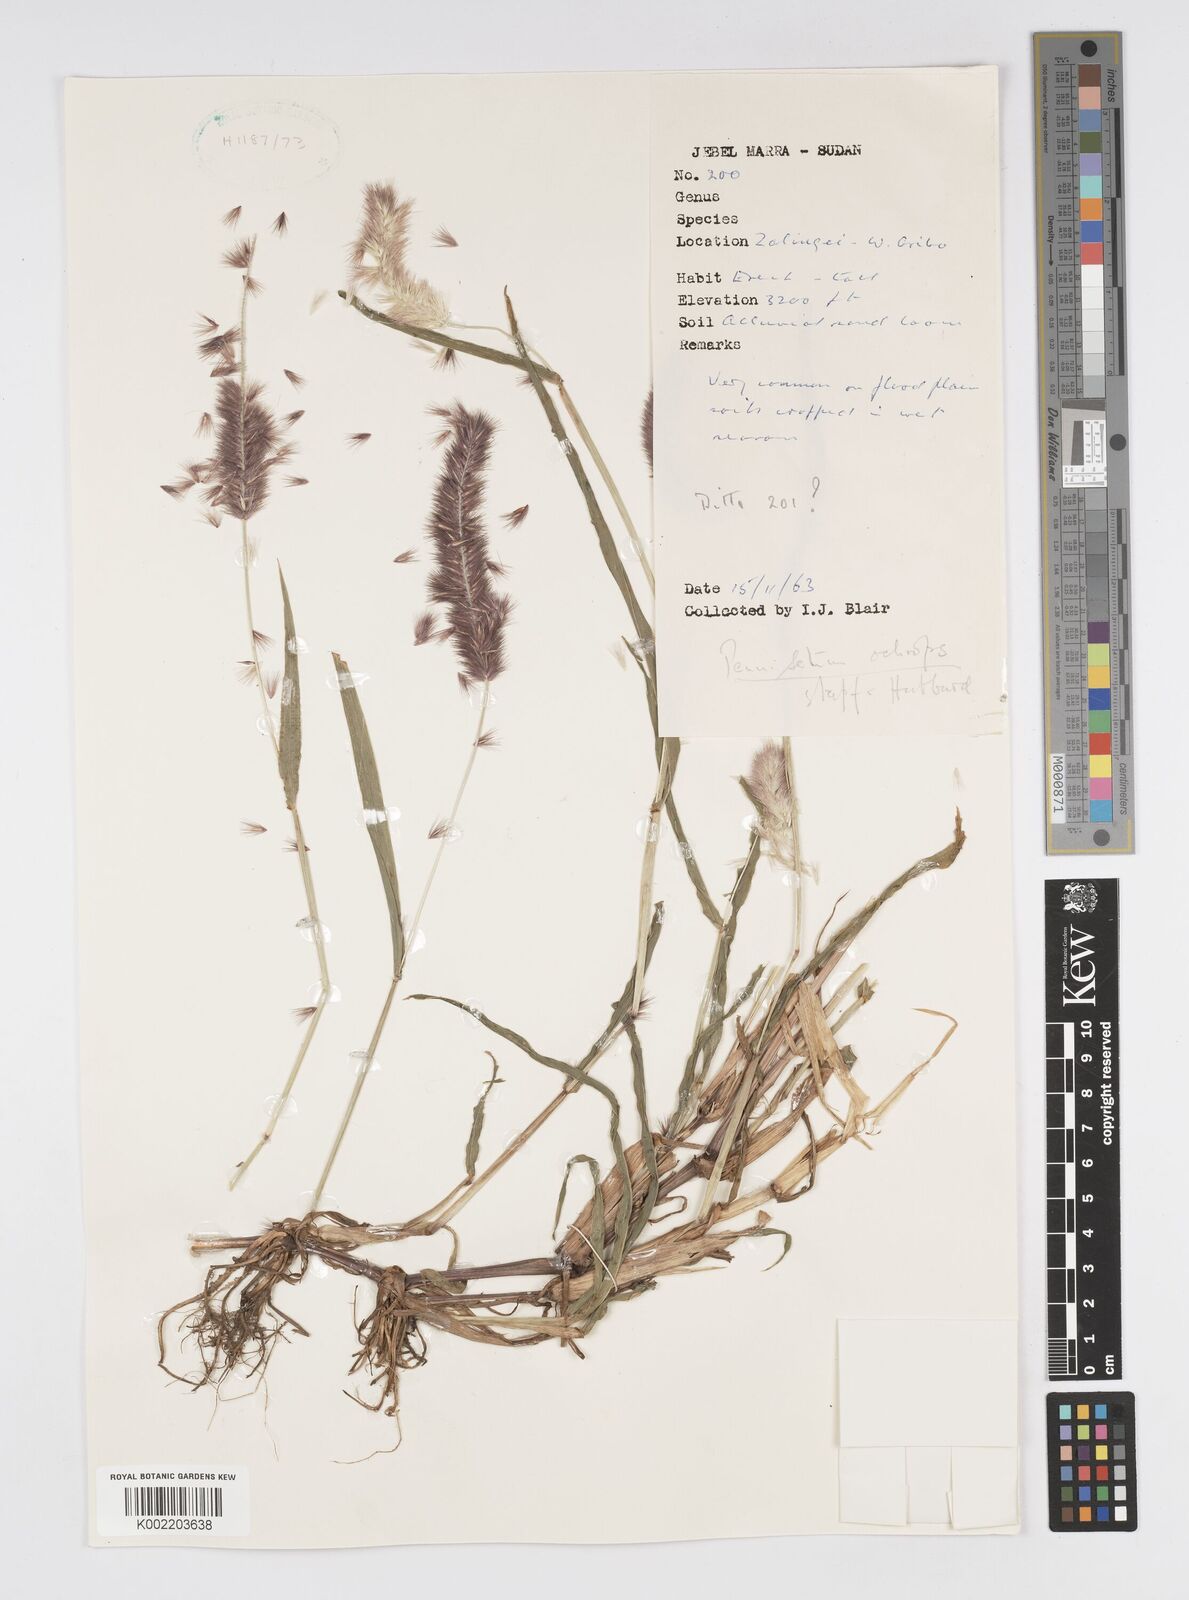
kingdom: Plantae
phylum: Tracheophyta
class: Liliopsida
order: Poales
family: Poaceae
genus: Cenchrus
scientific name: Cenchrus violaceus
